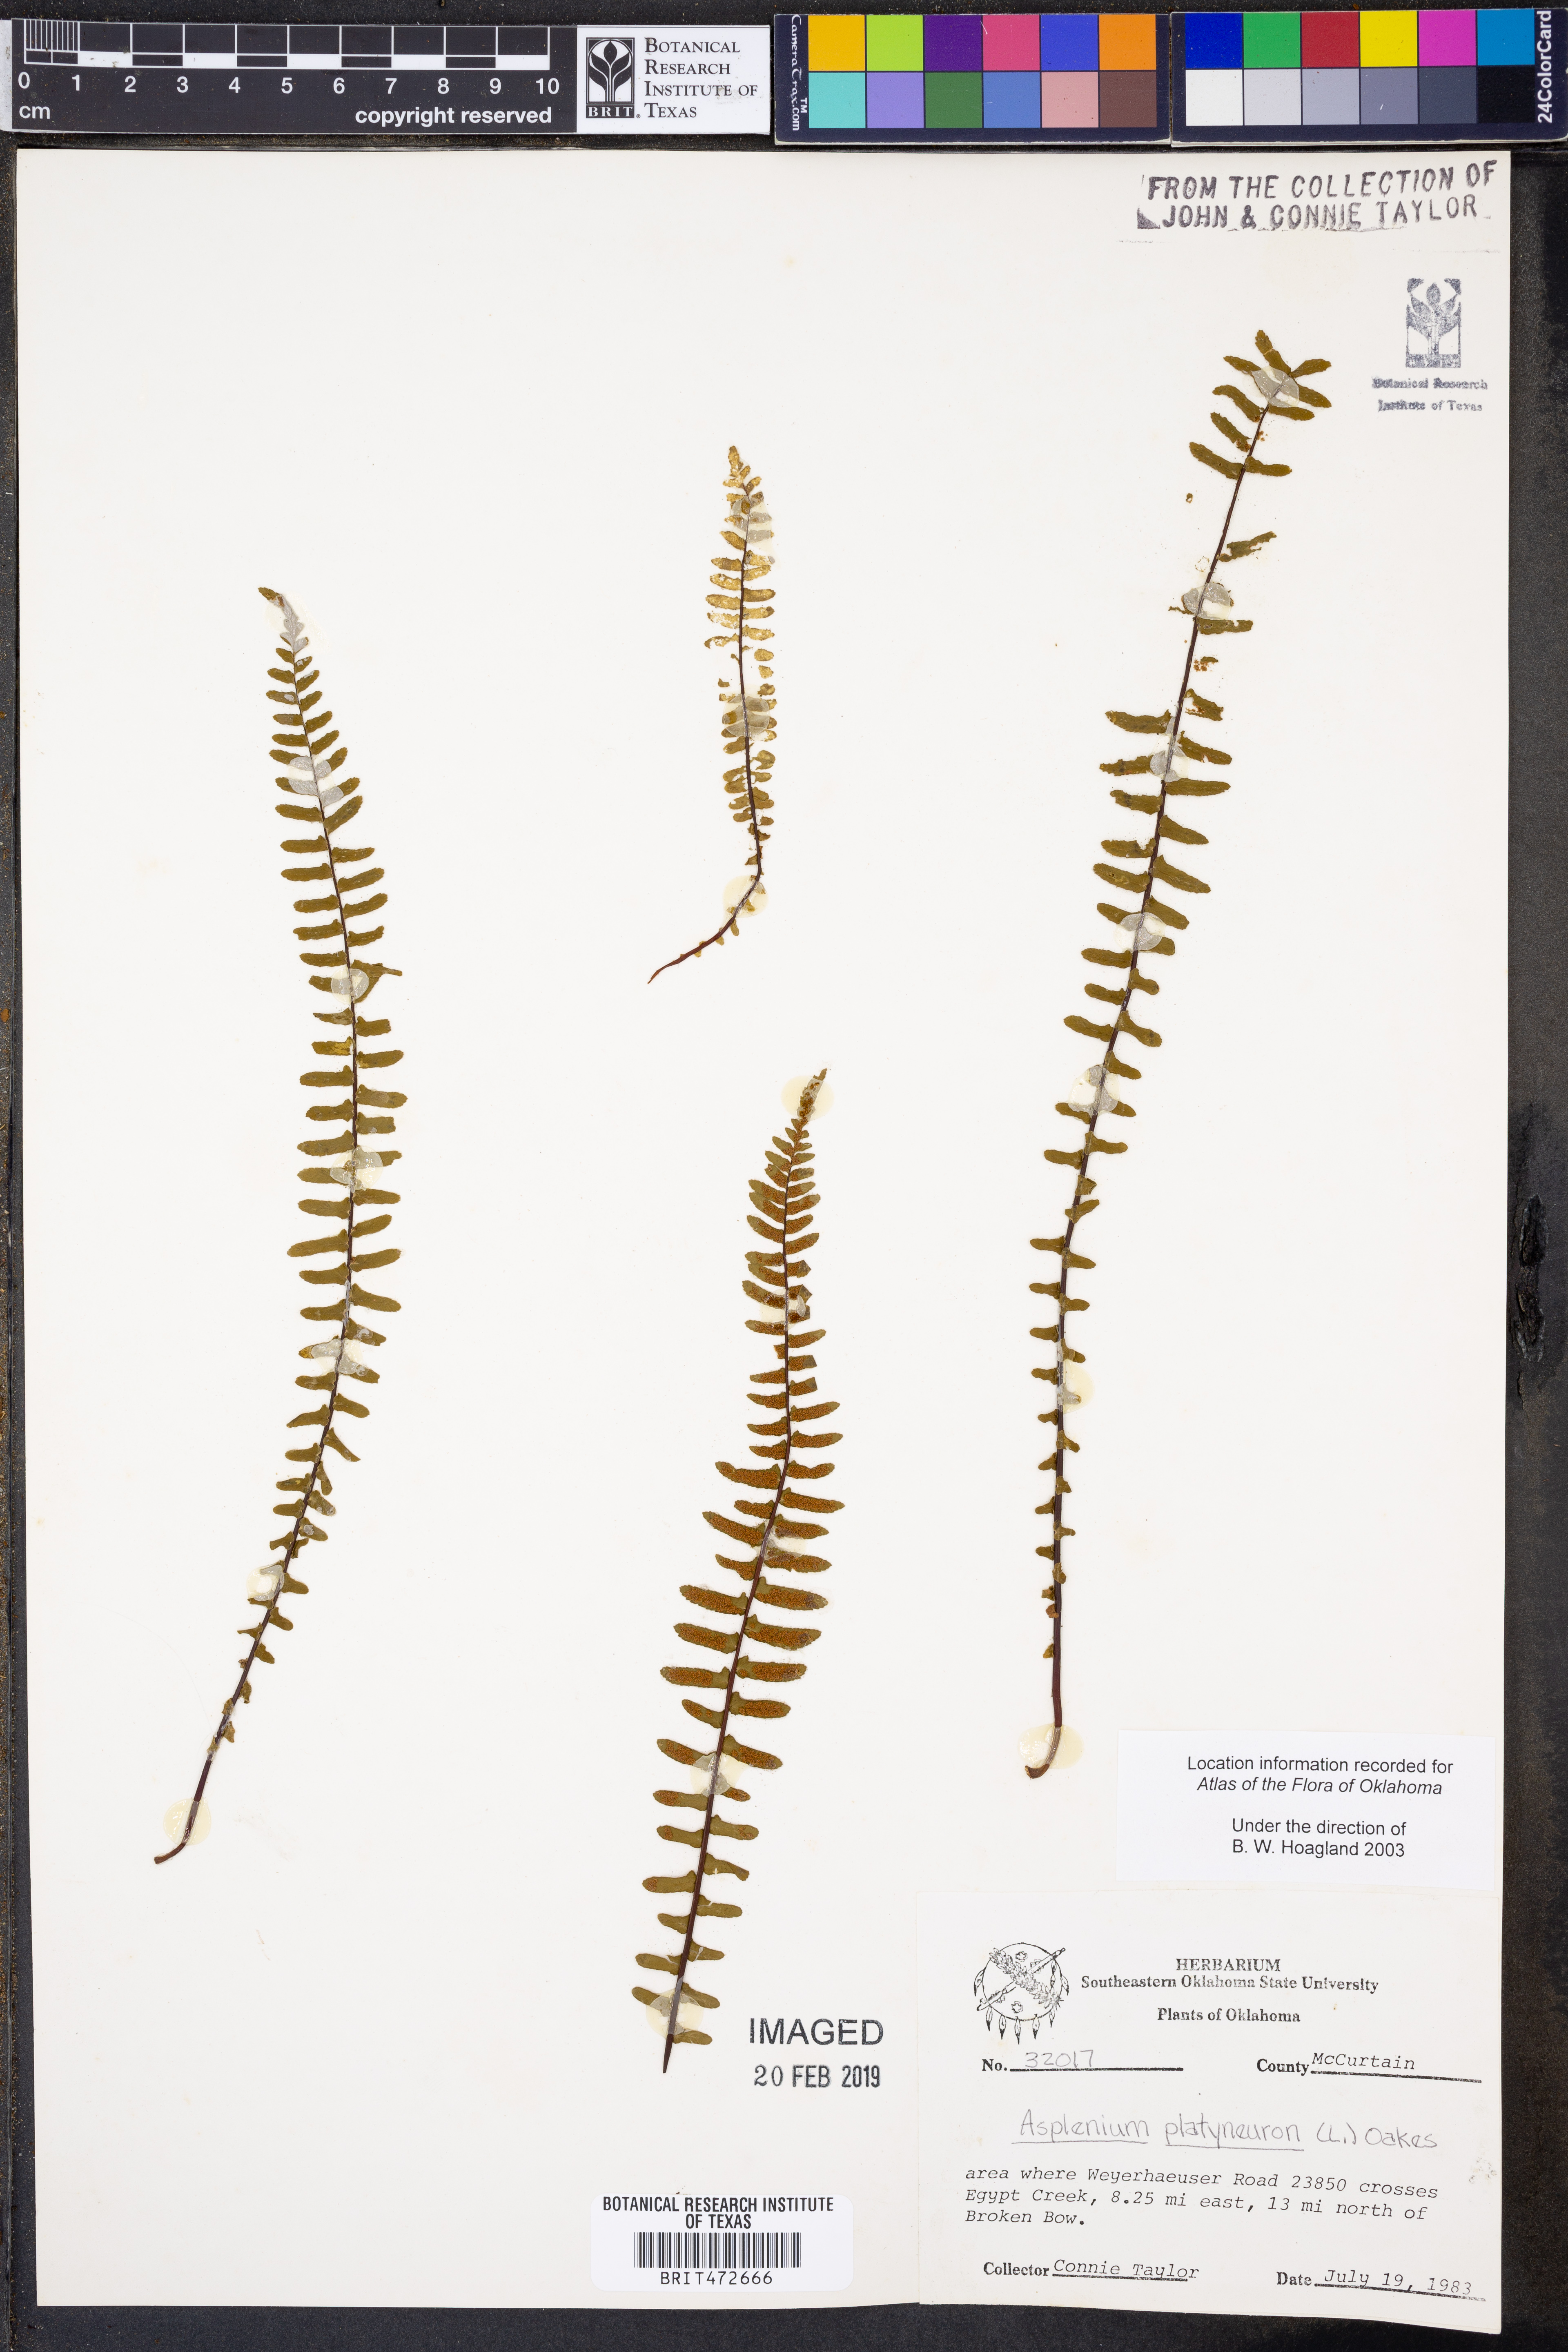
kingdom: Plantae
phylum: Tracheophyta
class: Polypodiopsida
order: Polypodiales
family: Aspleniaceae
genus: Asplenium
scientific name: Asplenium platyneuron
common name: Ebony spleenwort
